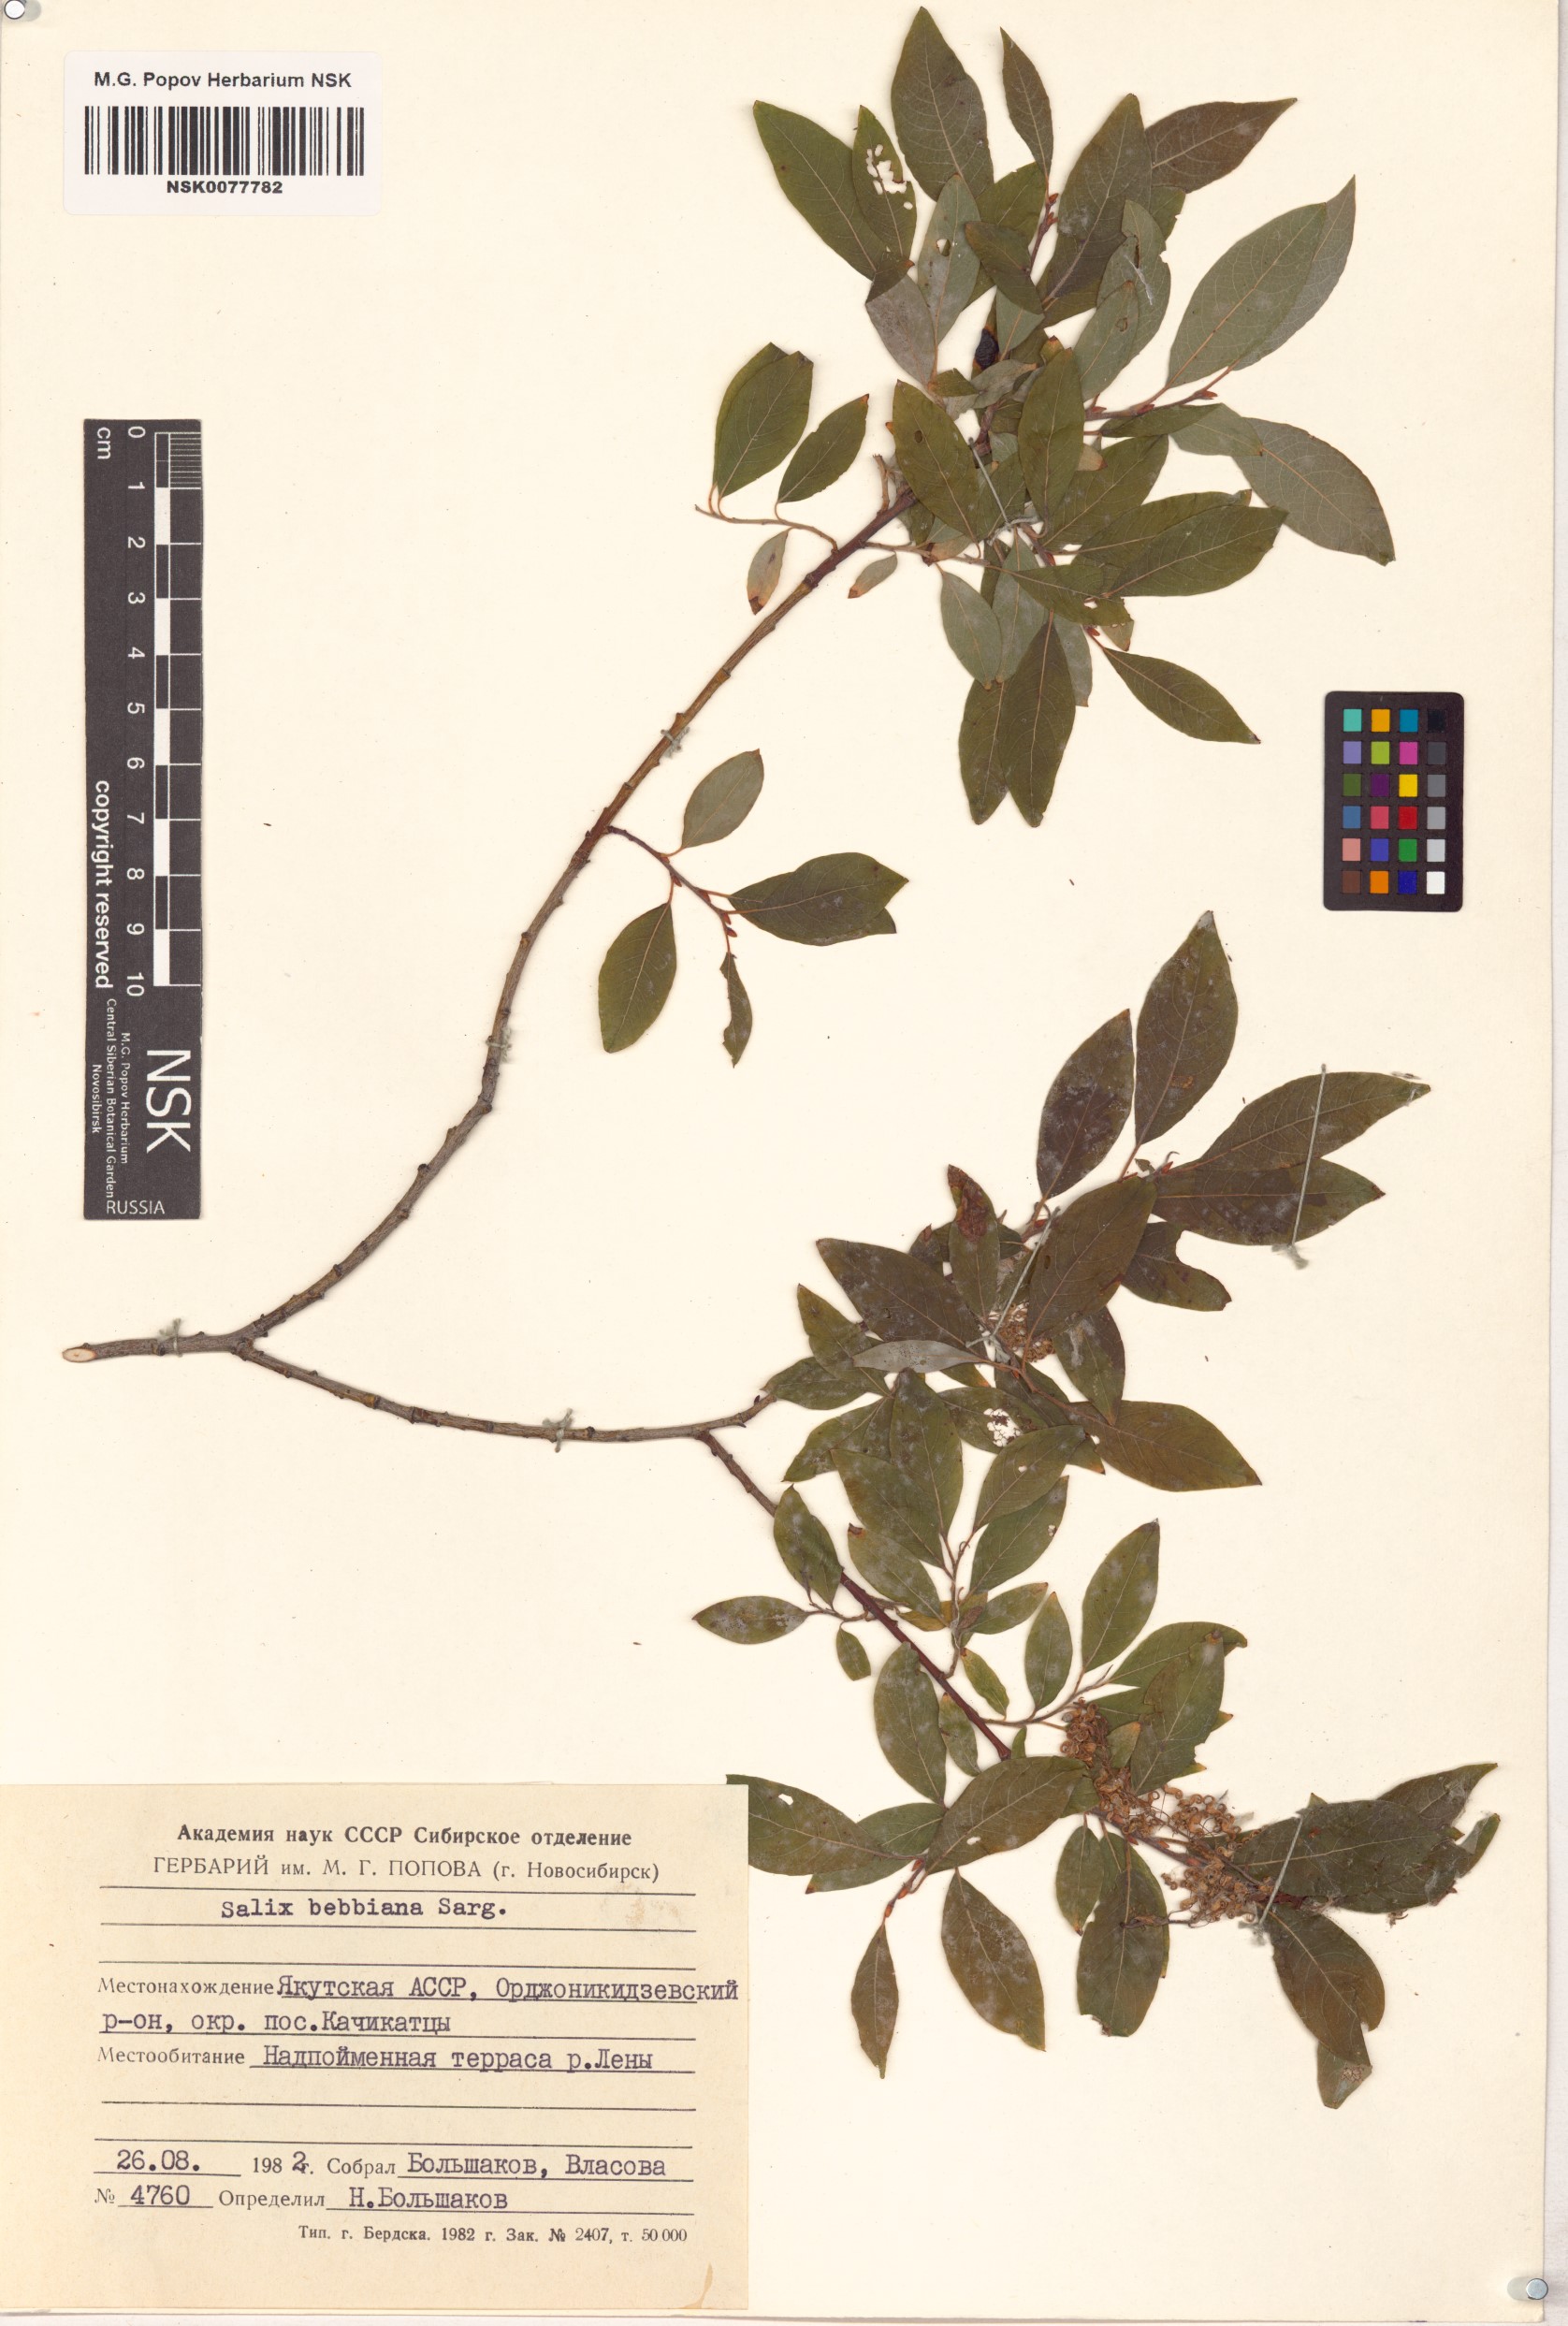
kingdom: Plantae
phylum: Tracheophyta
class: Magnoliopsida
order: Malpighiales
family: Salicaceae
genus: Salix
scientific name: Salix bebbiana
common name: Bebb's willow
